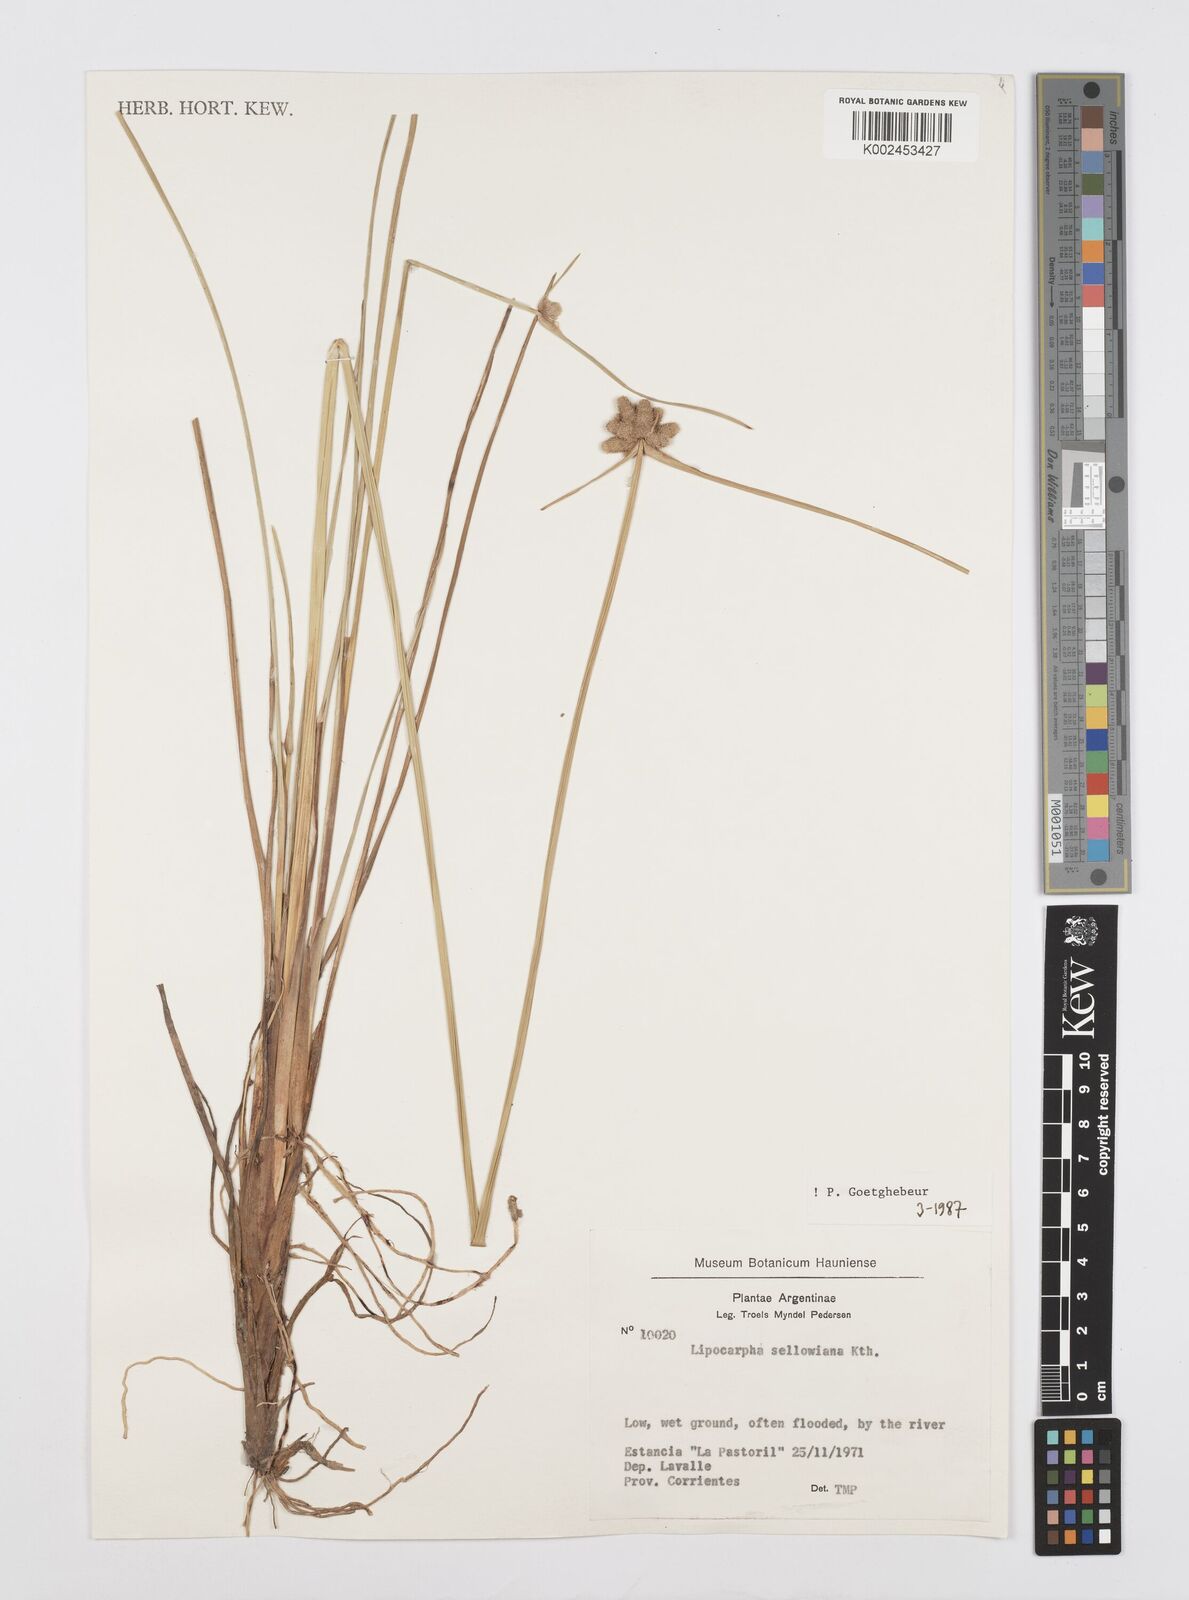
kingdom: Plantae
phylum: Tracheophyta
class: Liliopsida
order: Poales
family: Cyperaceae
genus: Cyperus
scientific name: Cyperus lanceolatus
